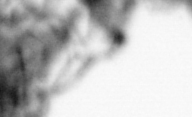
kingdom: Animalia
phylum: Arthropoda
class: Maxillopoda
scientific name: Maxillopoda
